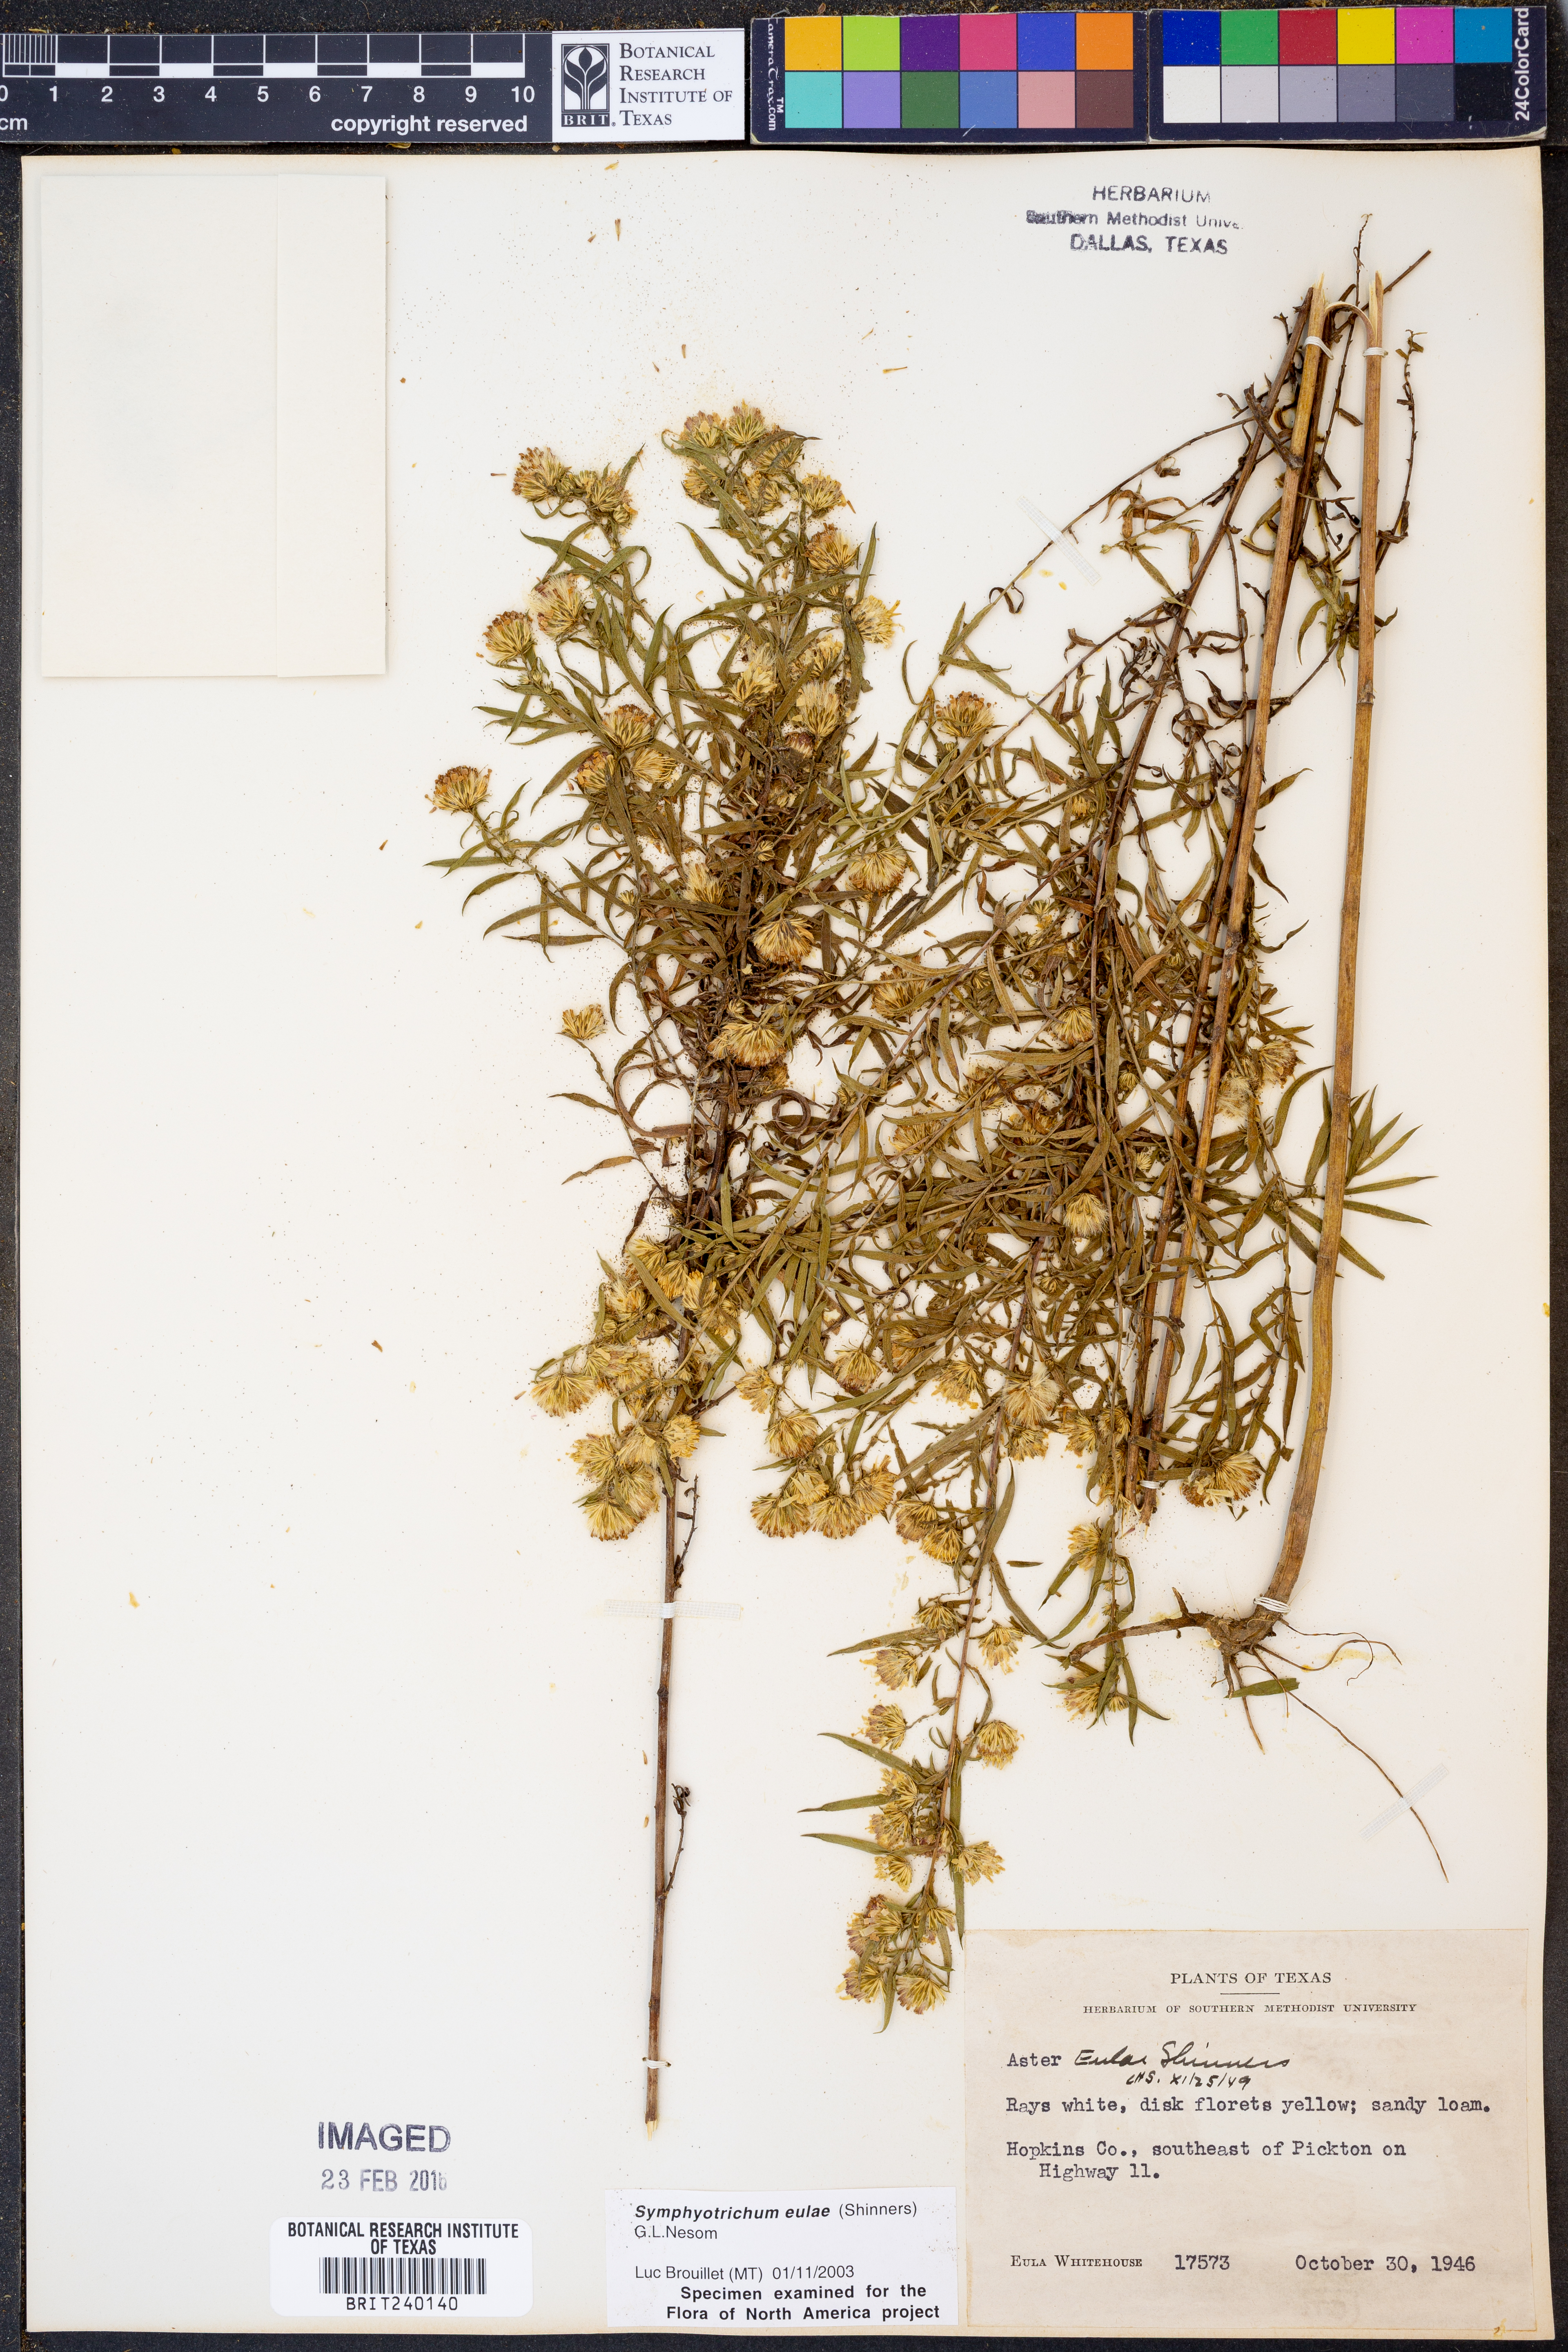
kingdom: Plantae
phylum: Tracheophyta
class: Magnoliopsida
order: Asterales
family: Asteraceae
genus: Symphyotrichum
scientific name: Symphyotrichum eulae
